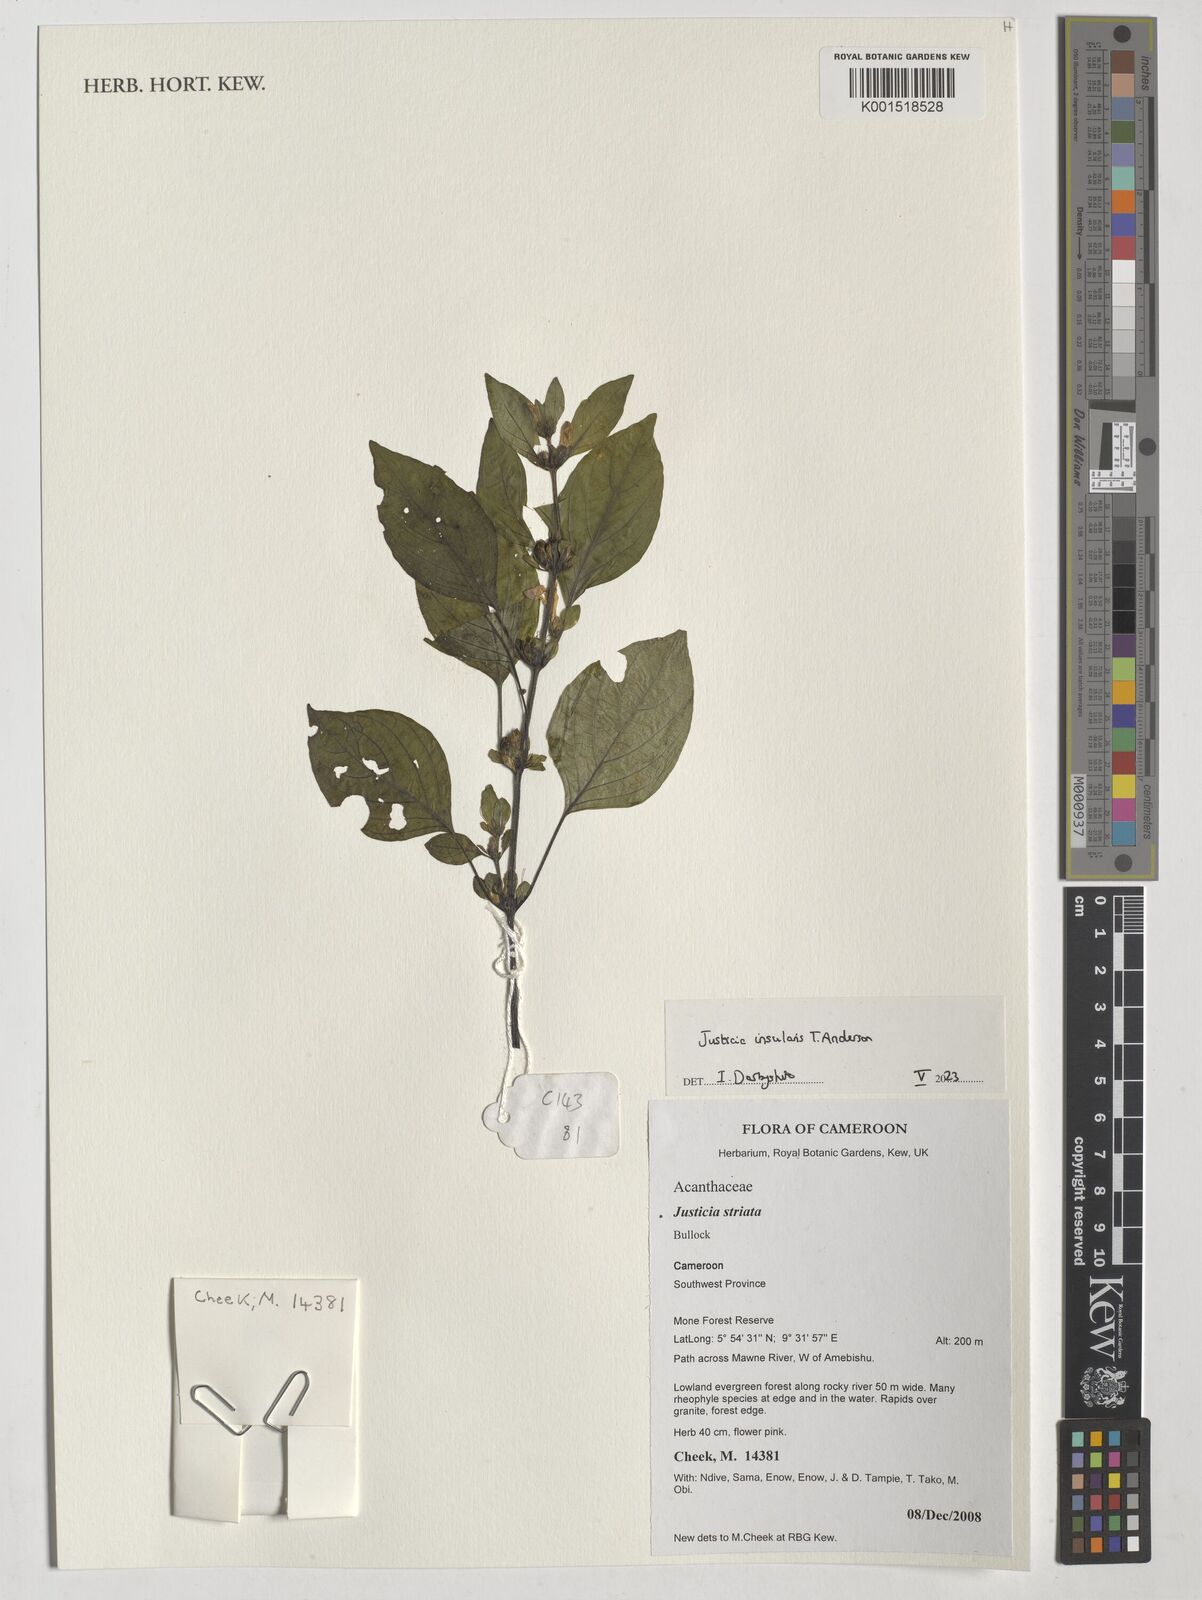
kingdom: Plantae
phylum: Tracheophyta
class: Magnoliopsida
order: Lamiales
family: Acanthaceae
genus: Justicia
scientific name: Justicia insularis
